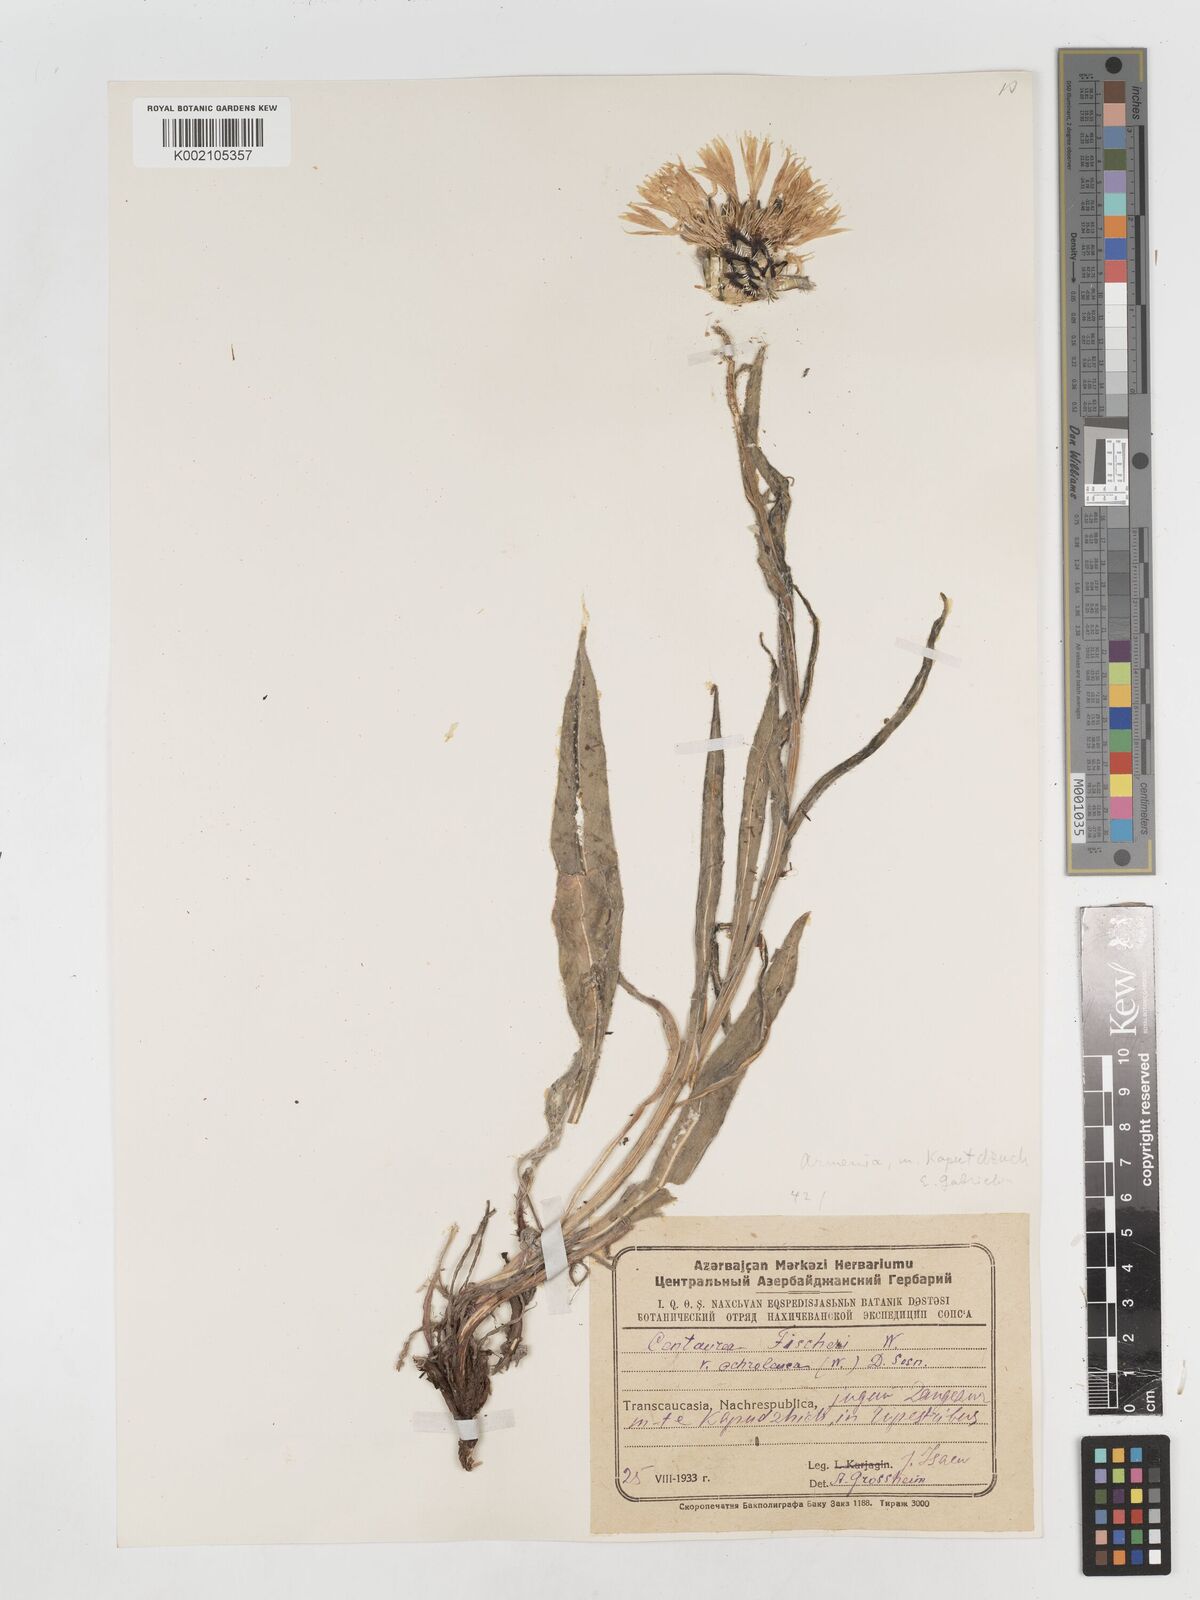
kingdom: Plantae
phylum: Tracheophyta
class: Magnoliopsida
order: Asterales
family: Asteraceae
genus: Centaurea
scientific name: Centaurea cheiranthifolia
